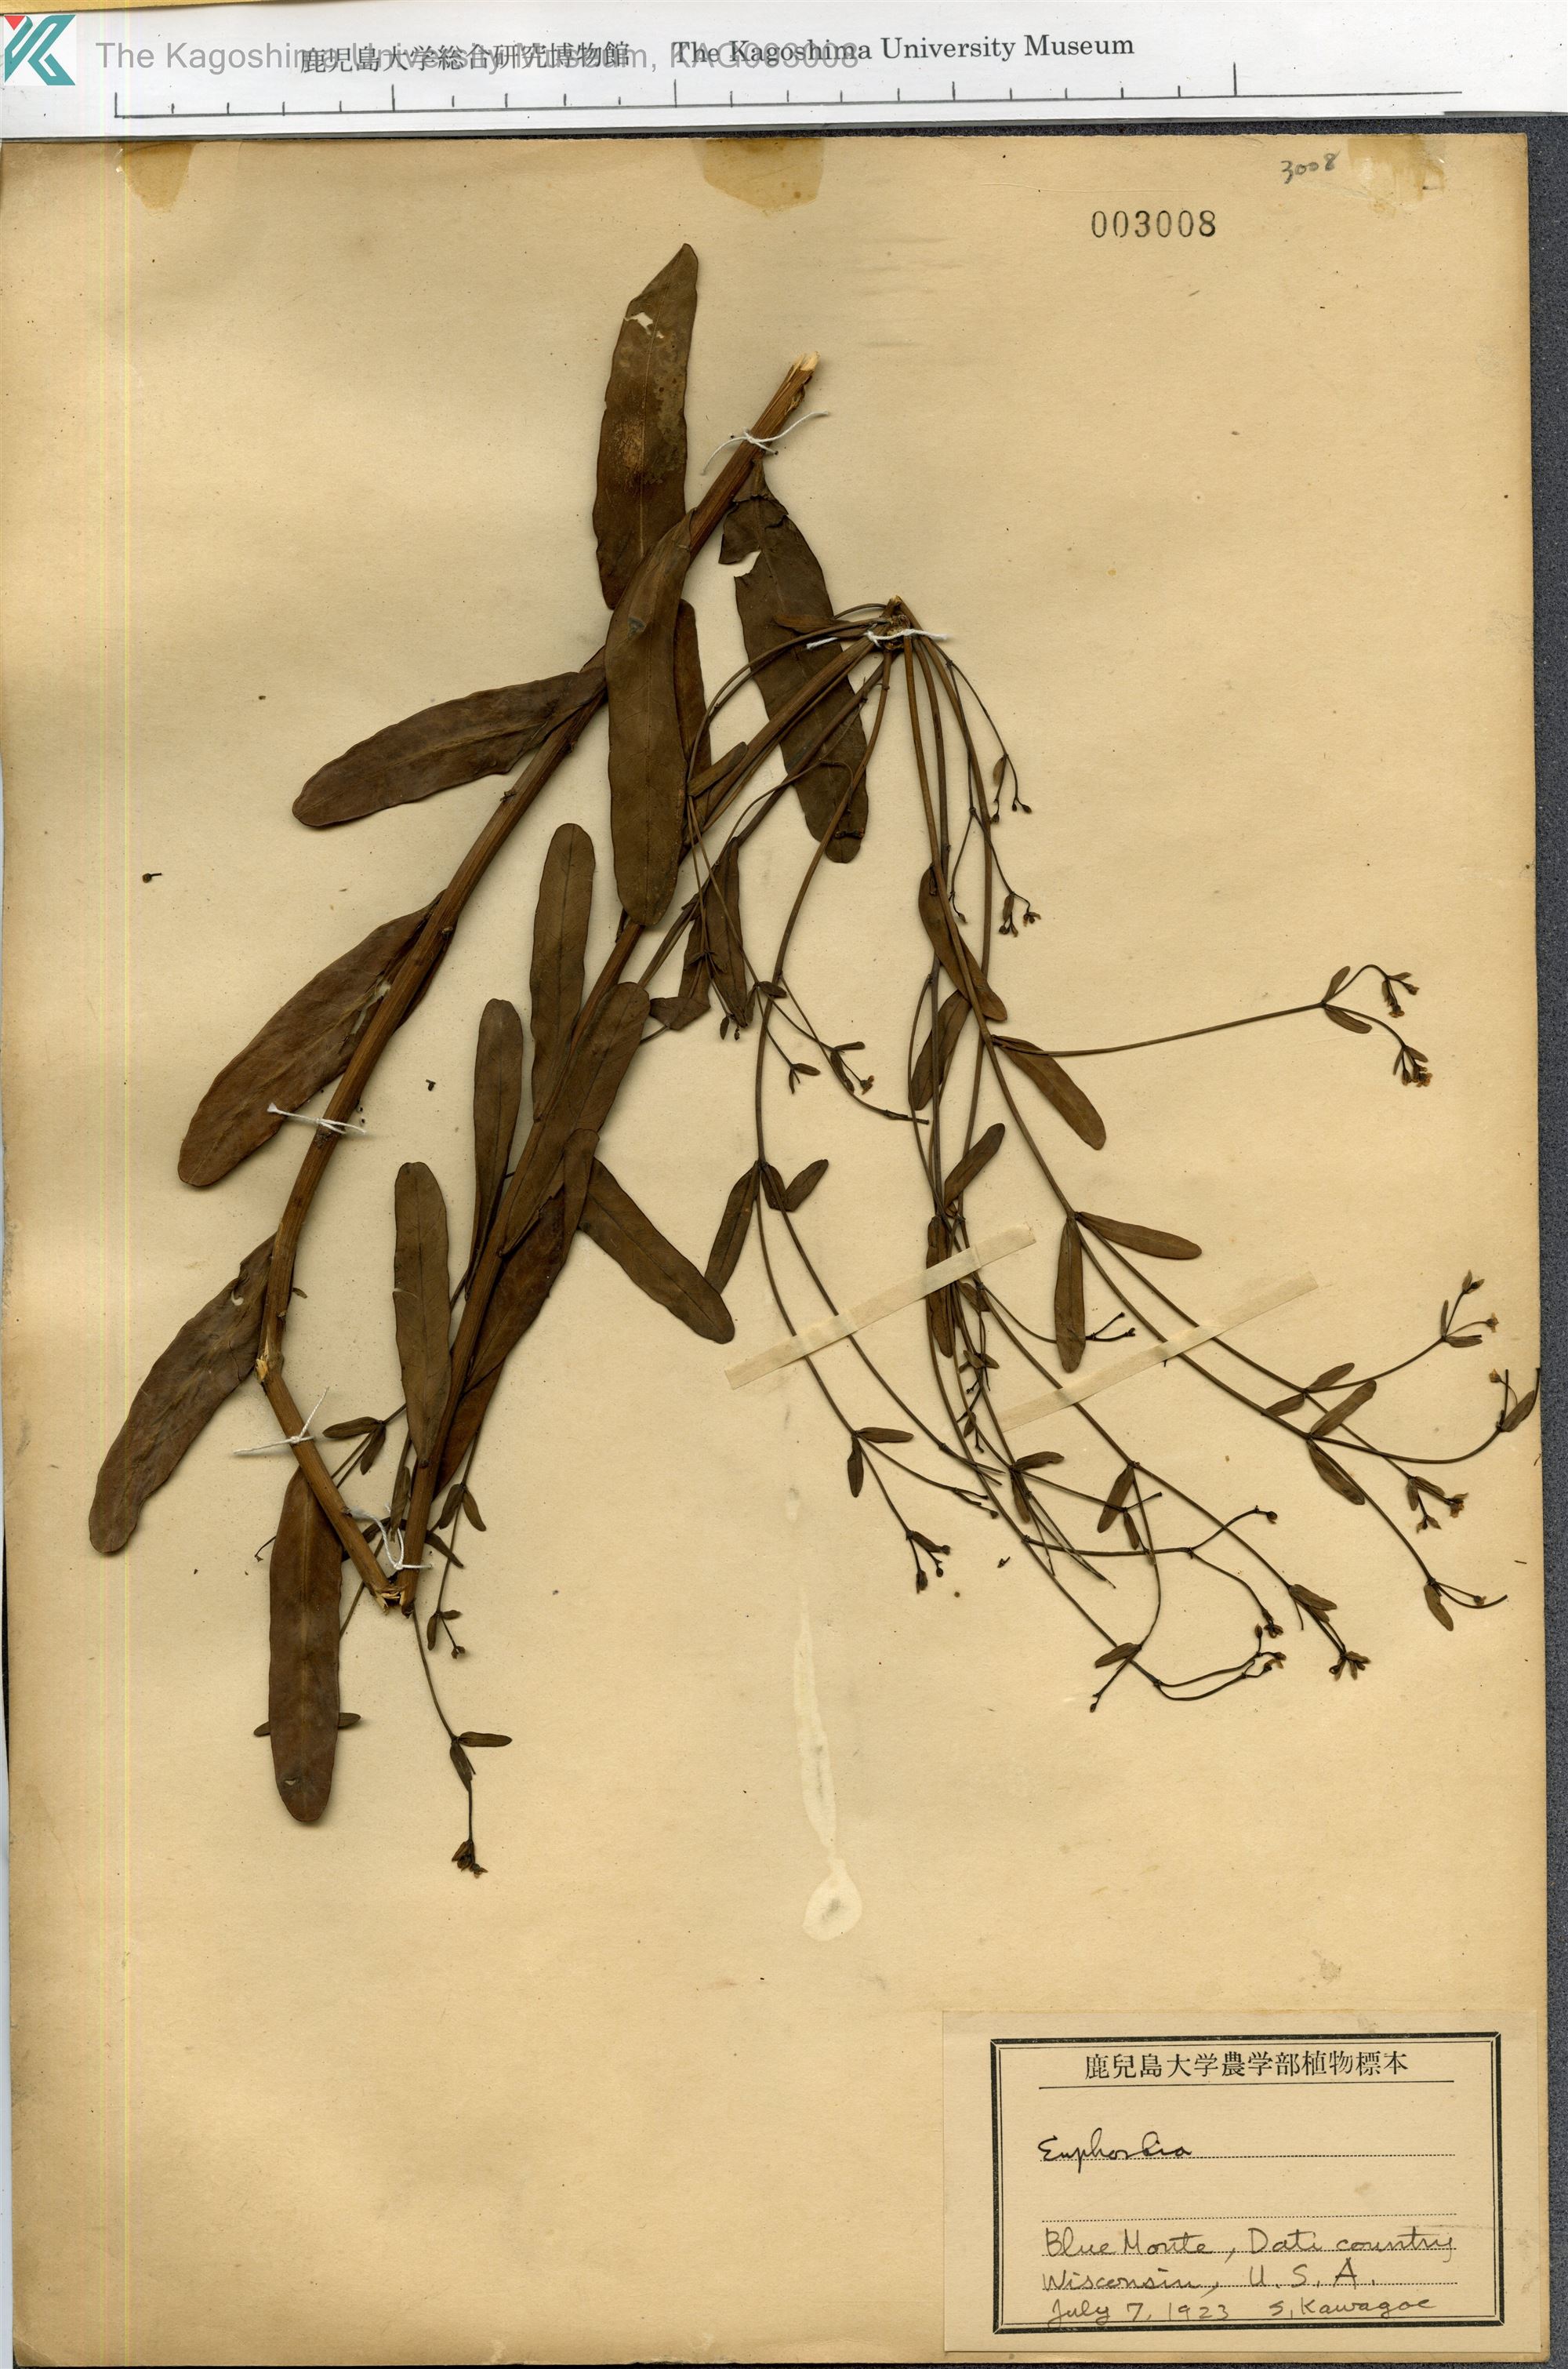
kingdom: Plantae
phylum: Tracheophyta
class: Magnoliopsida
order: Malpighiales
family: Euphorbiaceae
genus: Euphorbia
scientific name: Euphorbia
